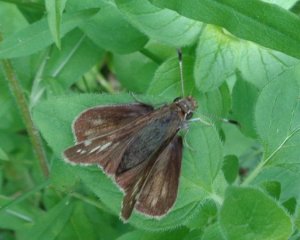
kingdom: Animalia
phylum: Arthropoda
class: Insecta
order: Lepidoptera
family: Hesperiidae
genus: Vernia
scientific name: Vernia verna
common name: Little Glassywing
